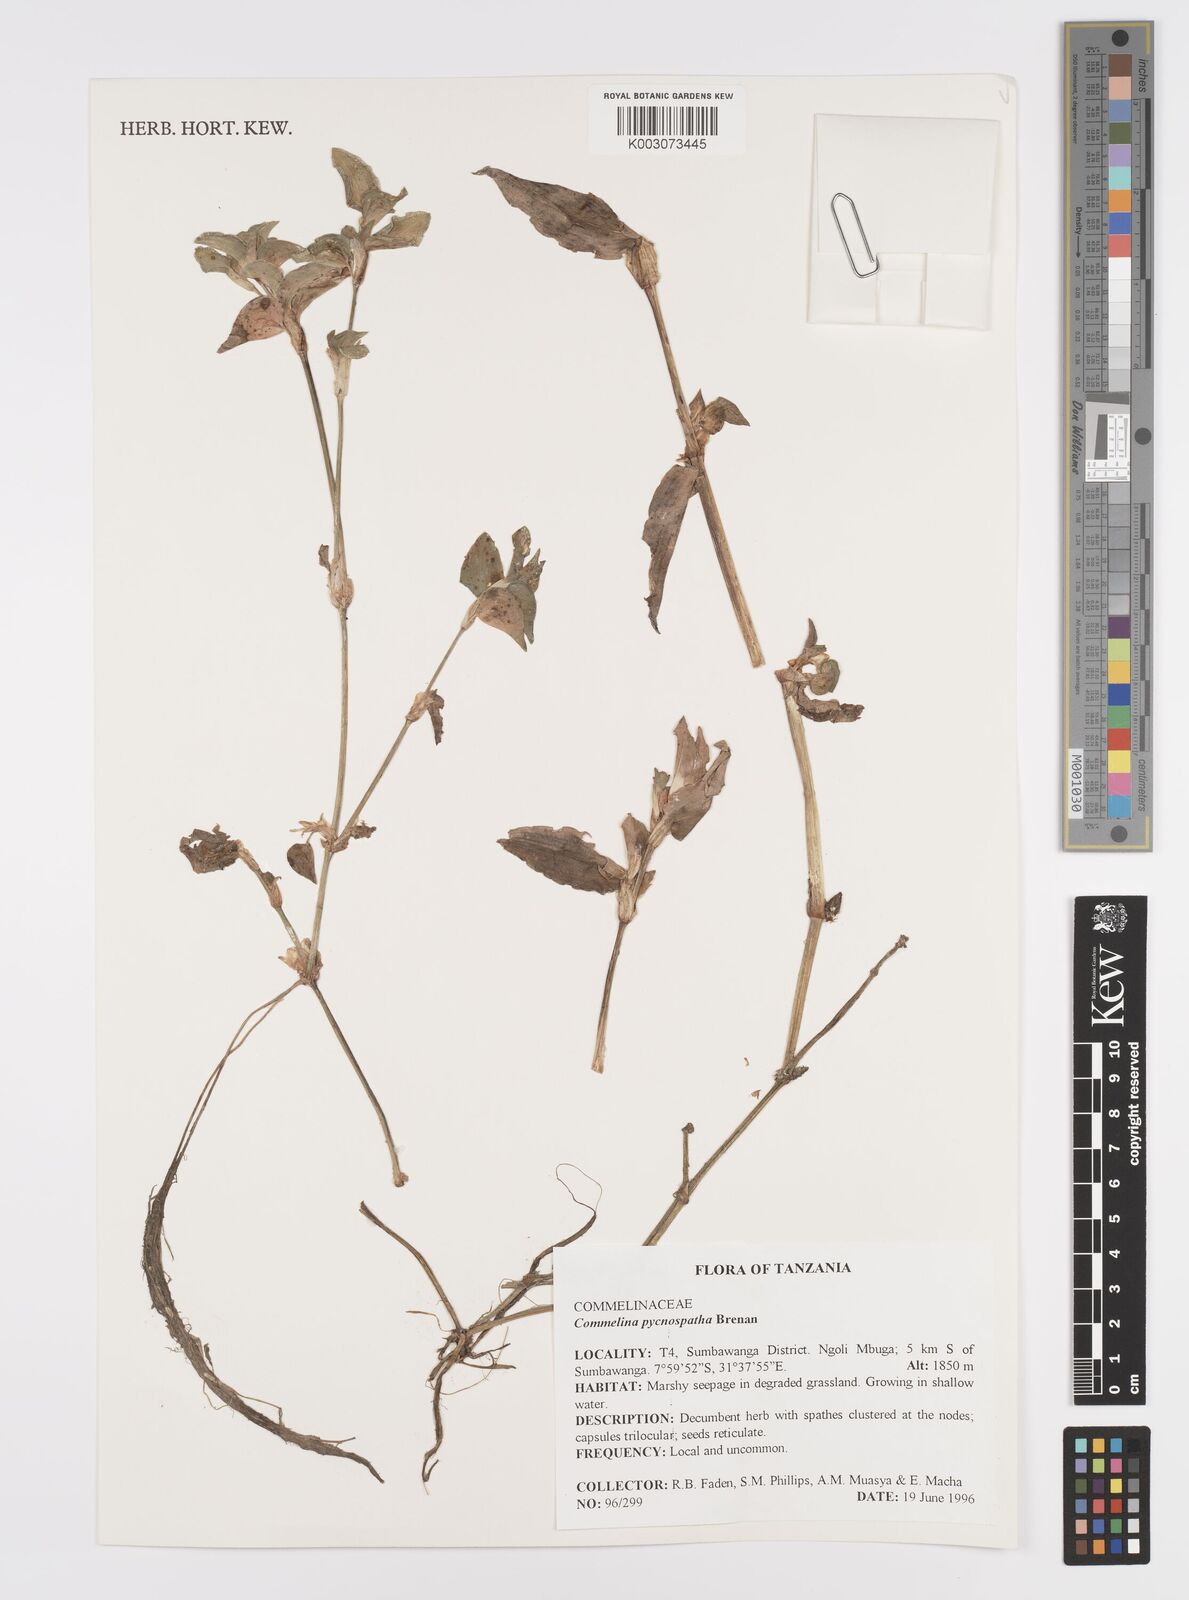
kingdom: Plantae
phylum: Tracheophyta
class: Liliopsida
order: Commelinales
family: Commelinaceae
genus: Commelina
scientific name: Commelina pycnospatha
